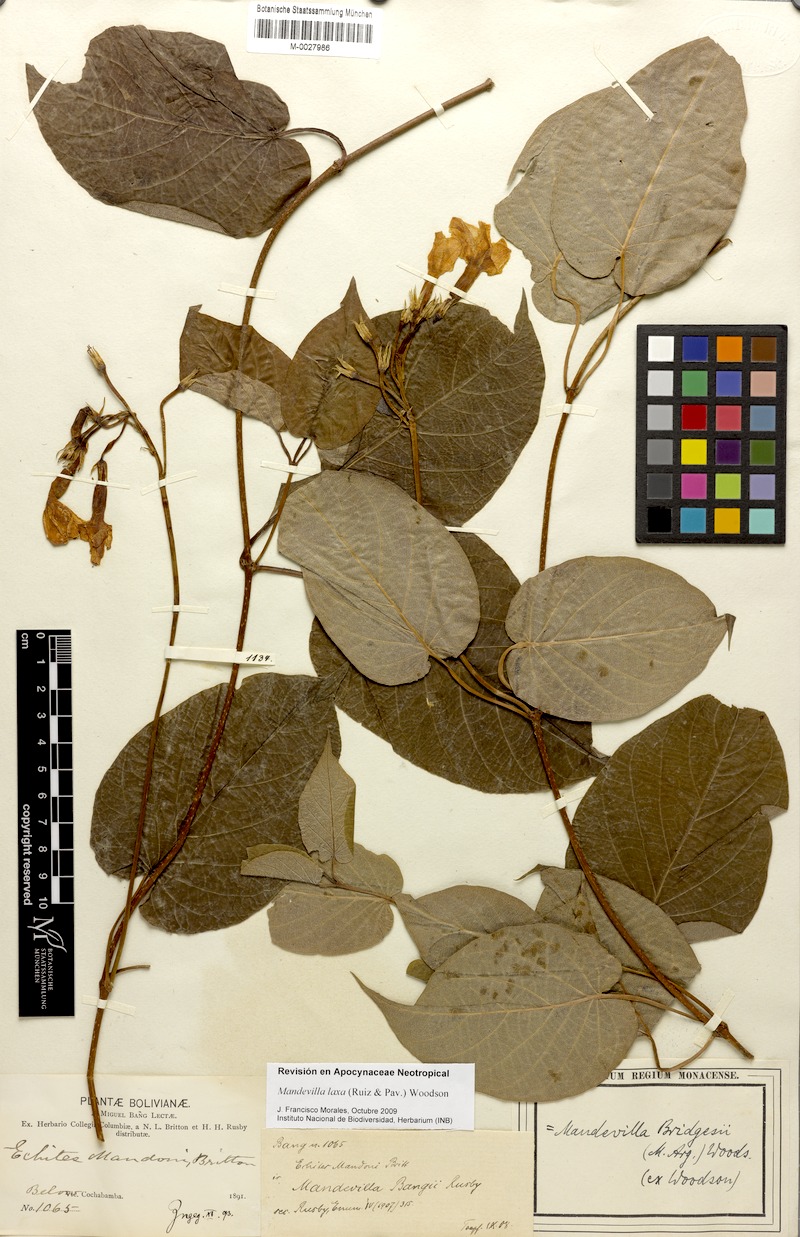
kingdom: Plantae
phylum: Tracheophyta
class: Magnoliopsida
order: Gentianales
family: Apocynaceae
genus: Mandevilla
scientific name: Mandevilla laxa
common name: Chilean-jasmine
